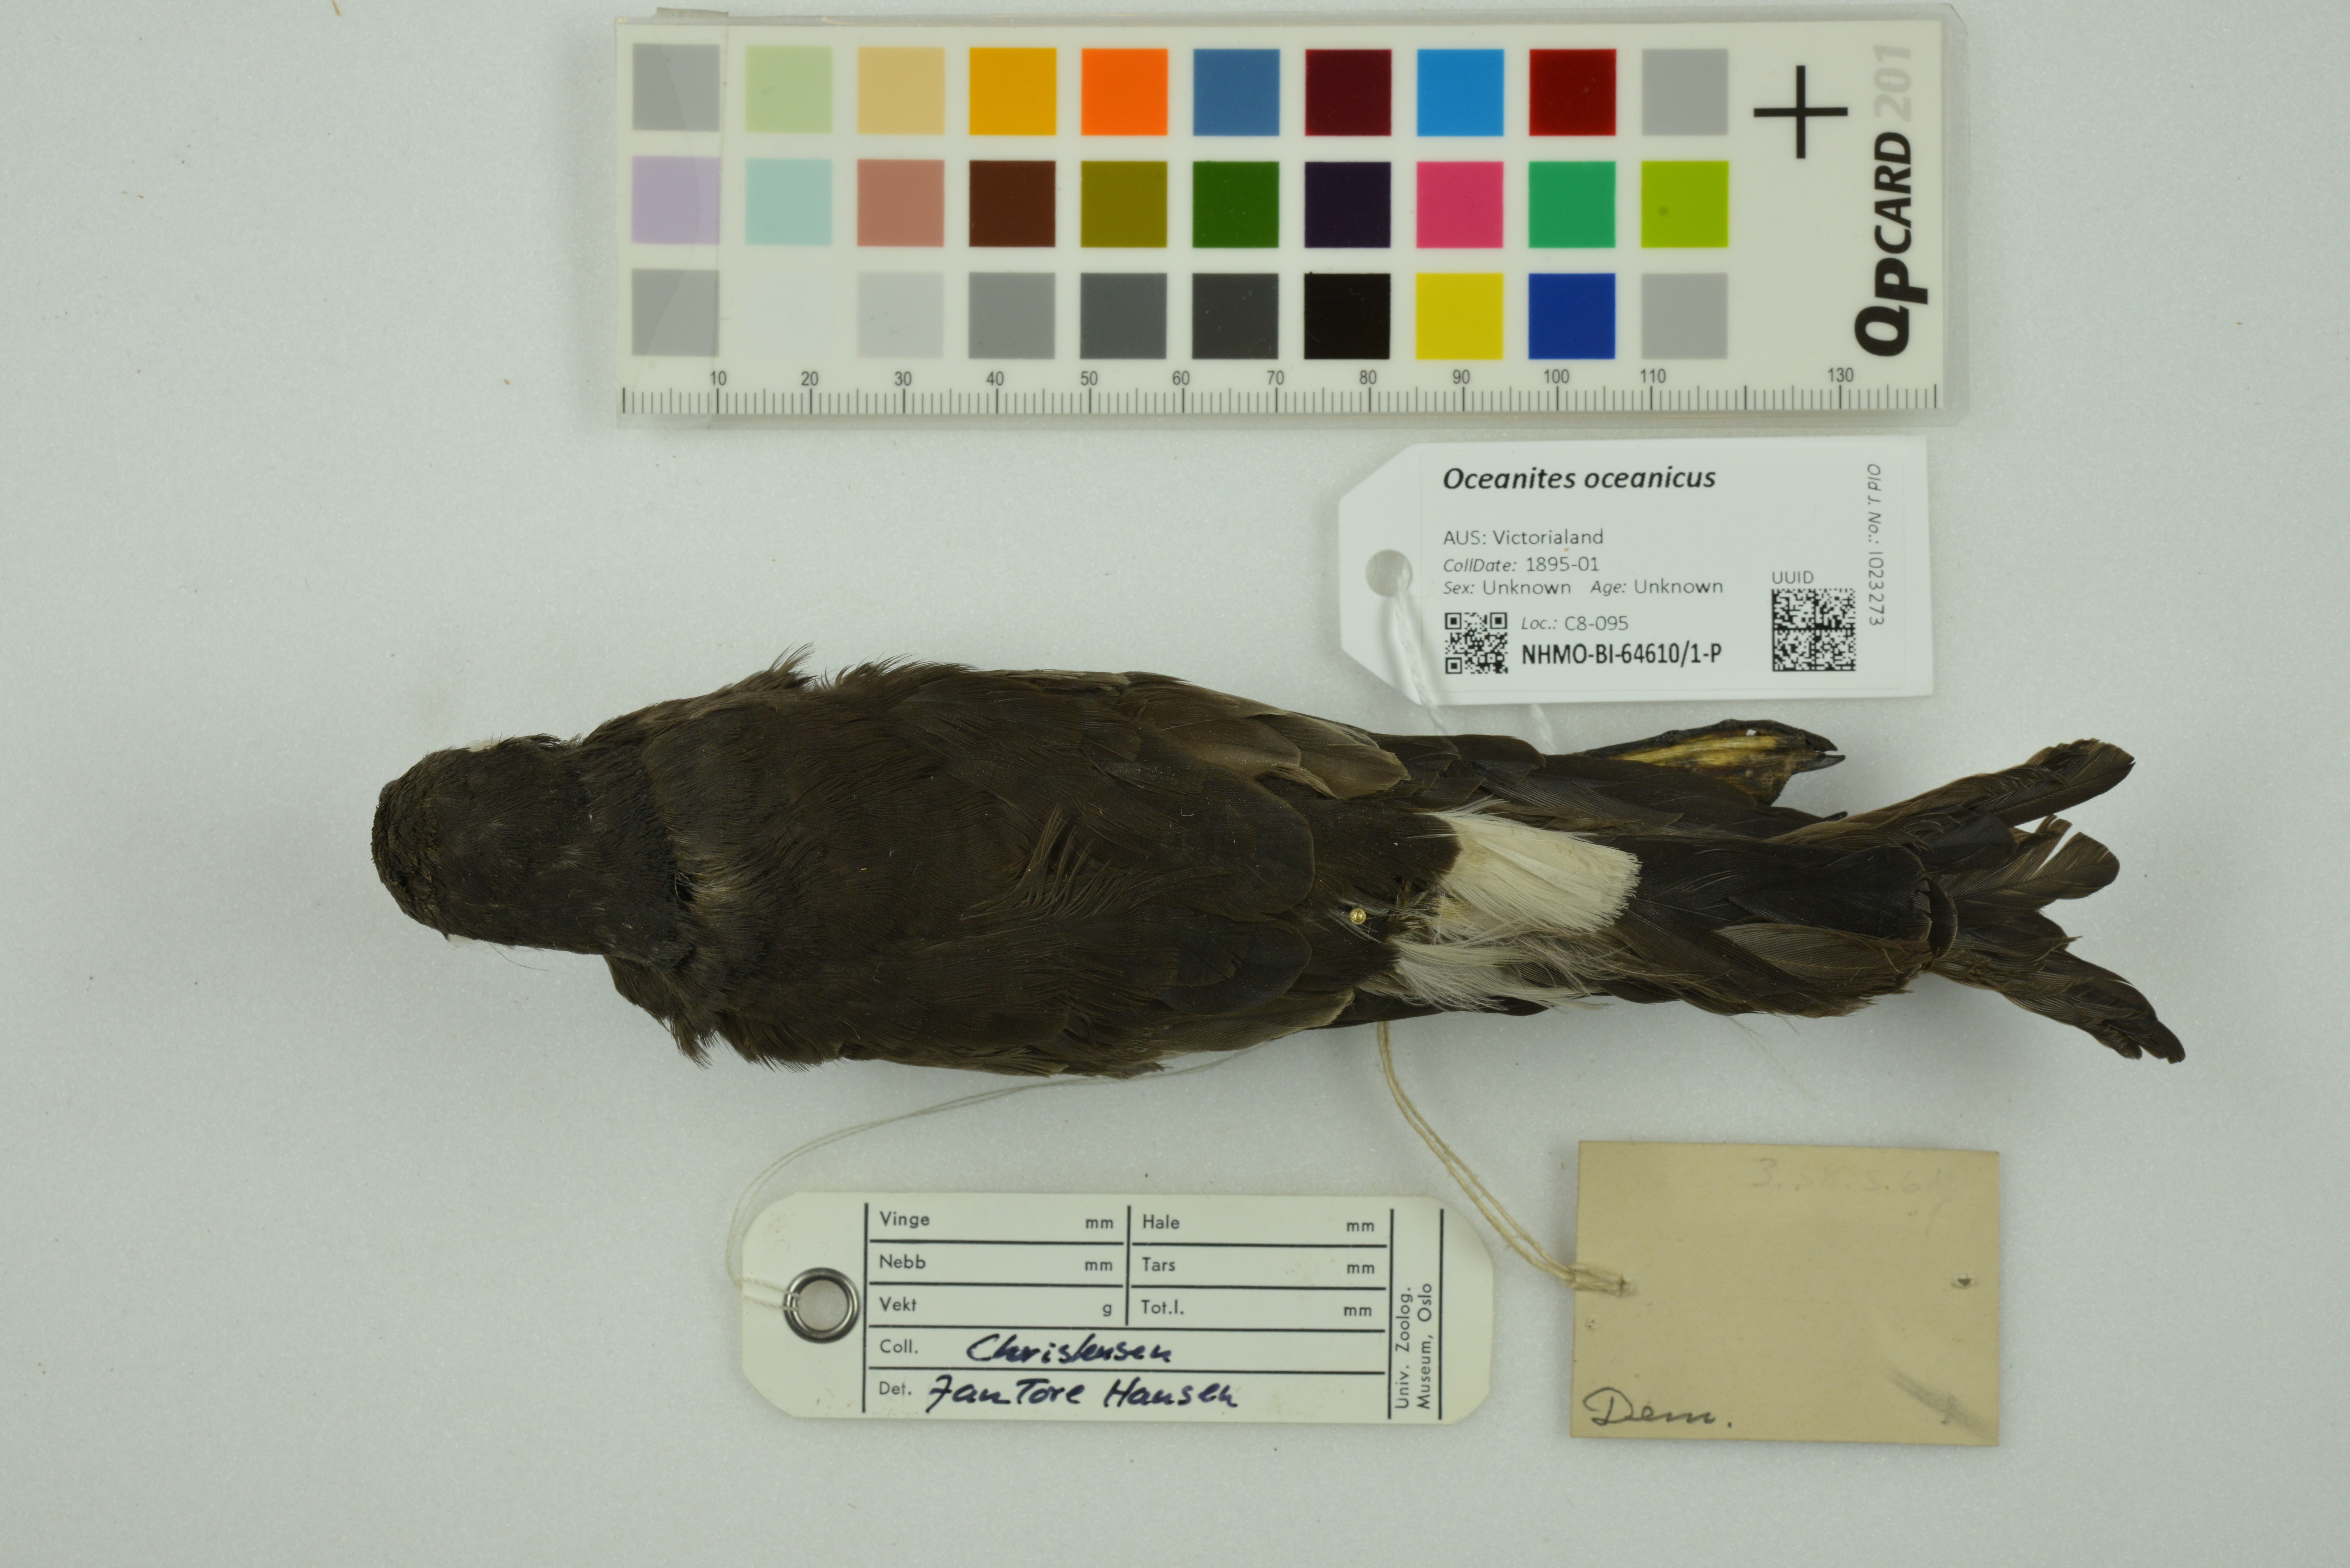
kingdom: Animalia
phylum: Chordata
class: Aves
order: Procellariiformes
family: Hydrobatidae
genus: Oceanites
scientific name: Oceanites oceanicus
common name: Wilson's storm petrel
